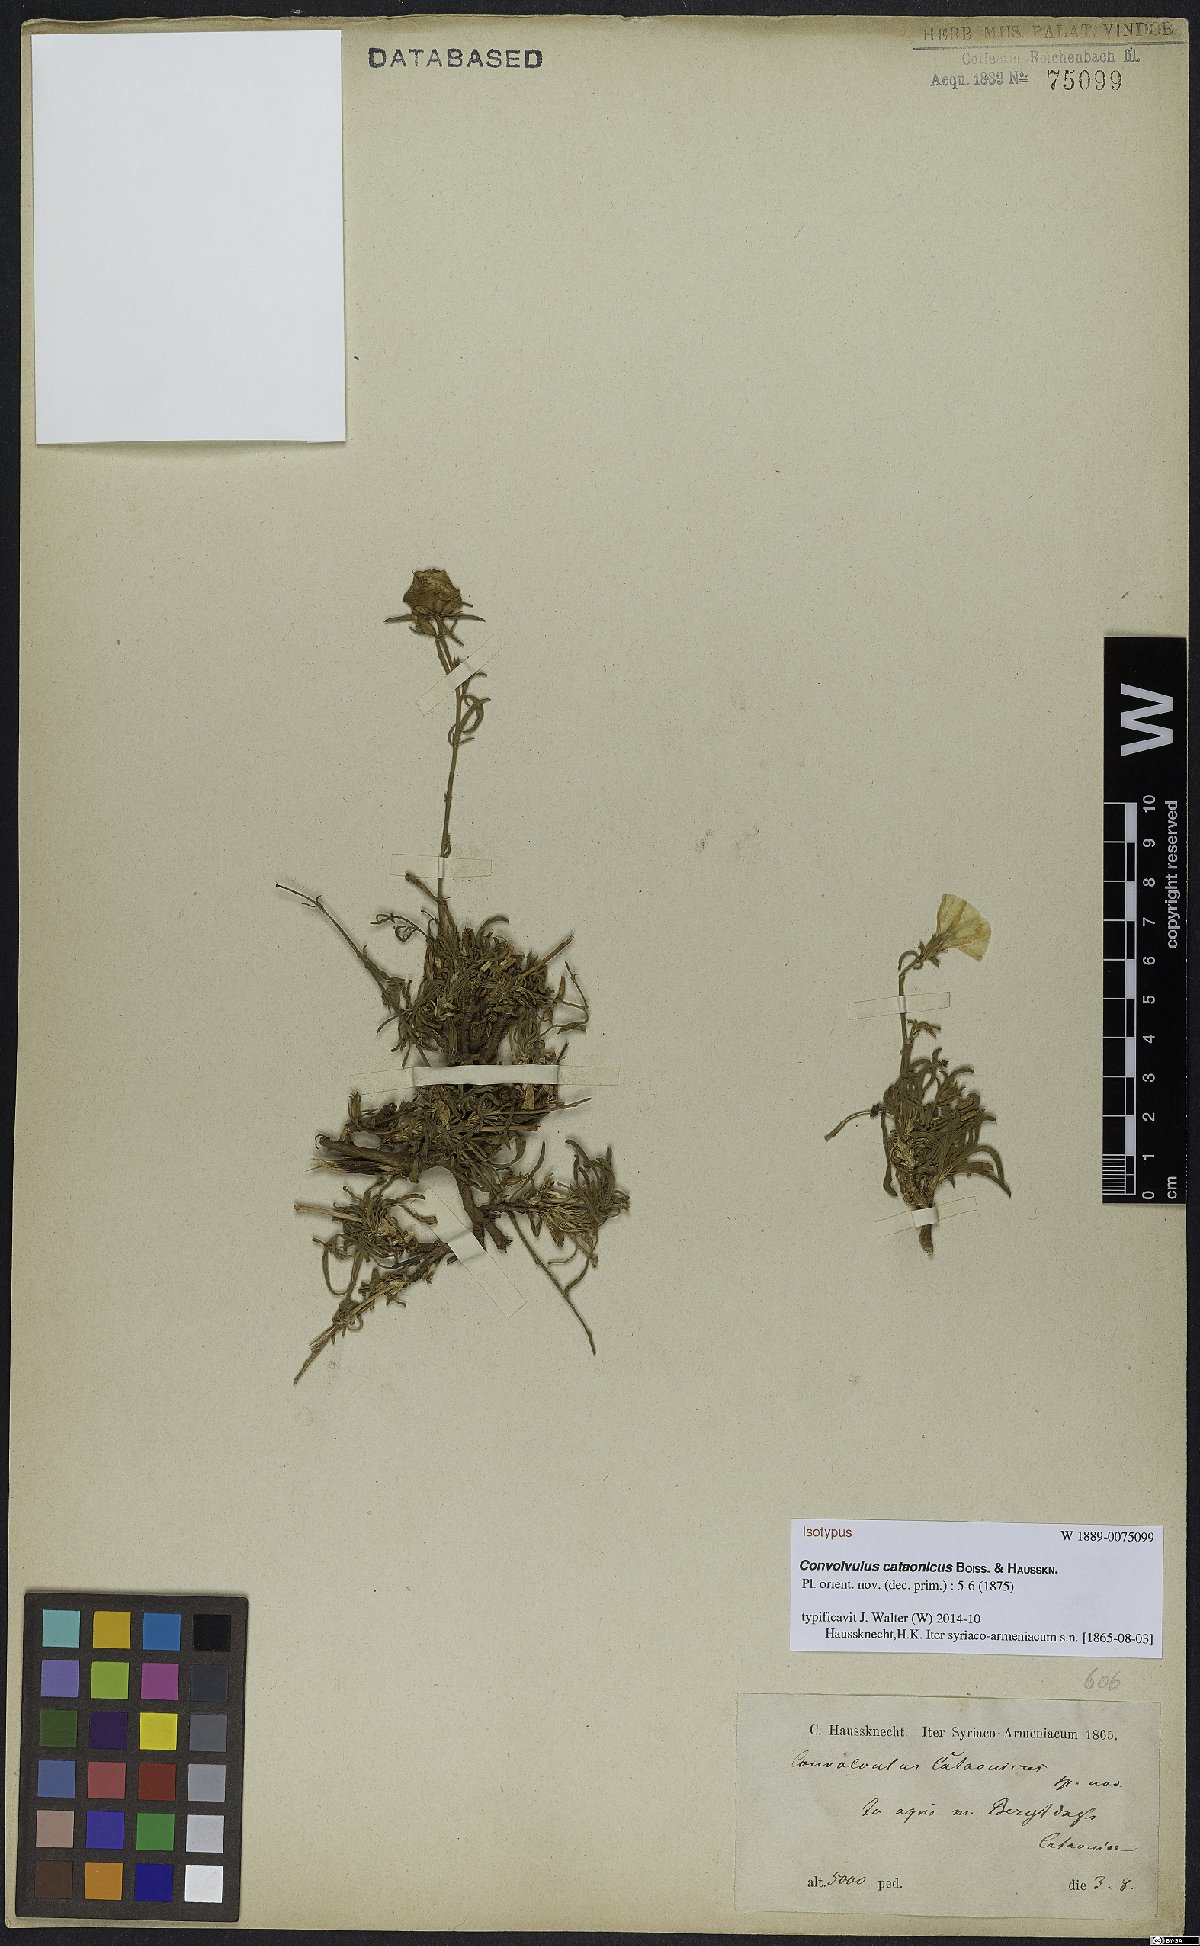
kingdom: Plantae
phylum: Tracheophyta
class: Magnoliopsida
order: Solanales
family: Convolvulaceae
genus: Convolvulus
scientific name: Convolvulus cataonicus
